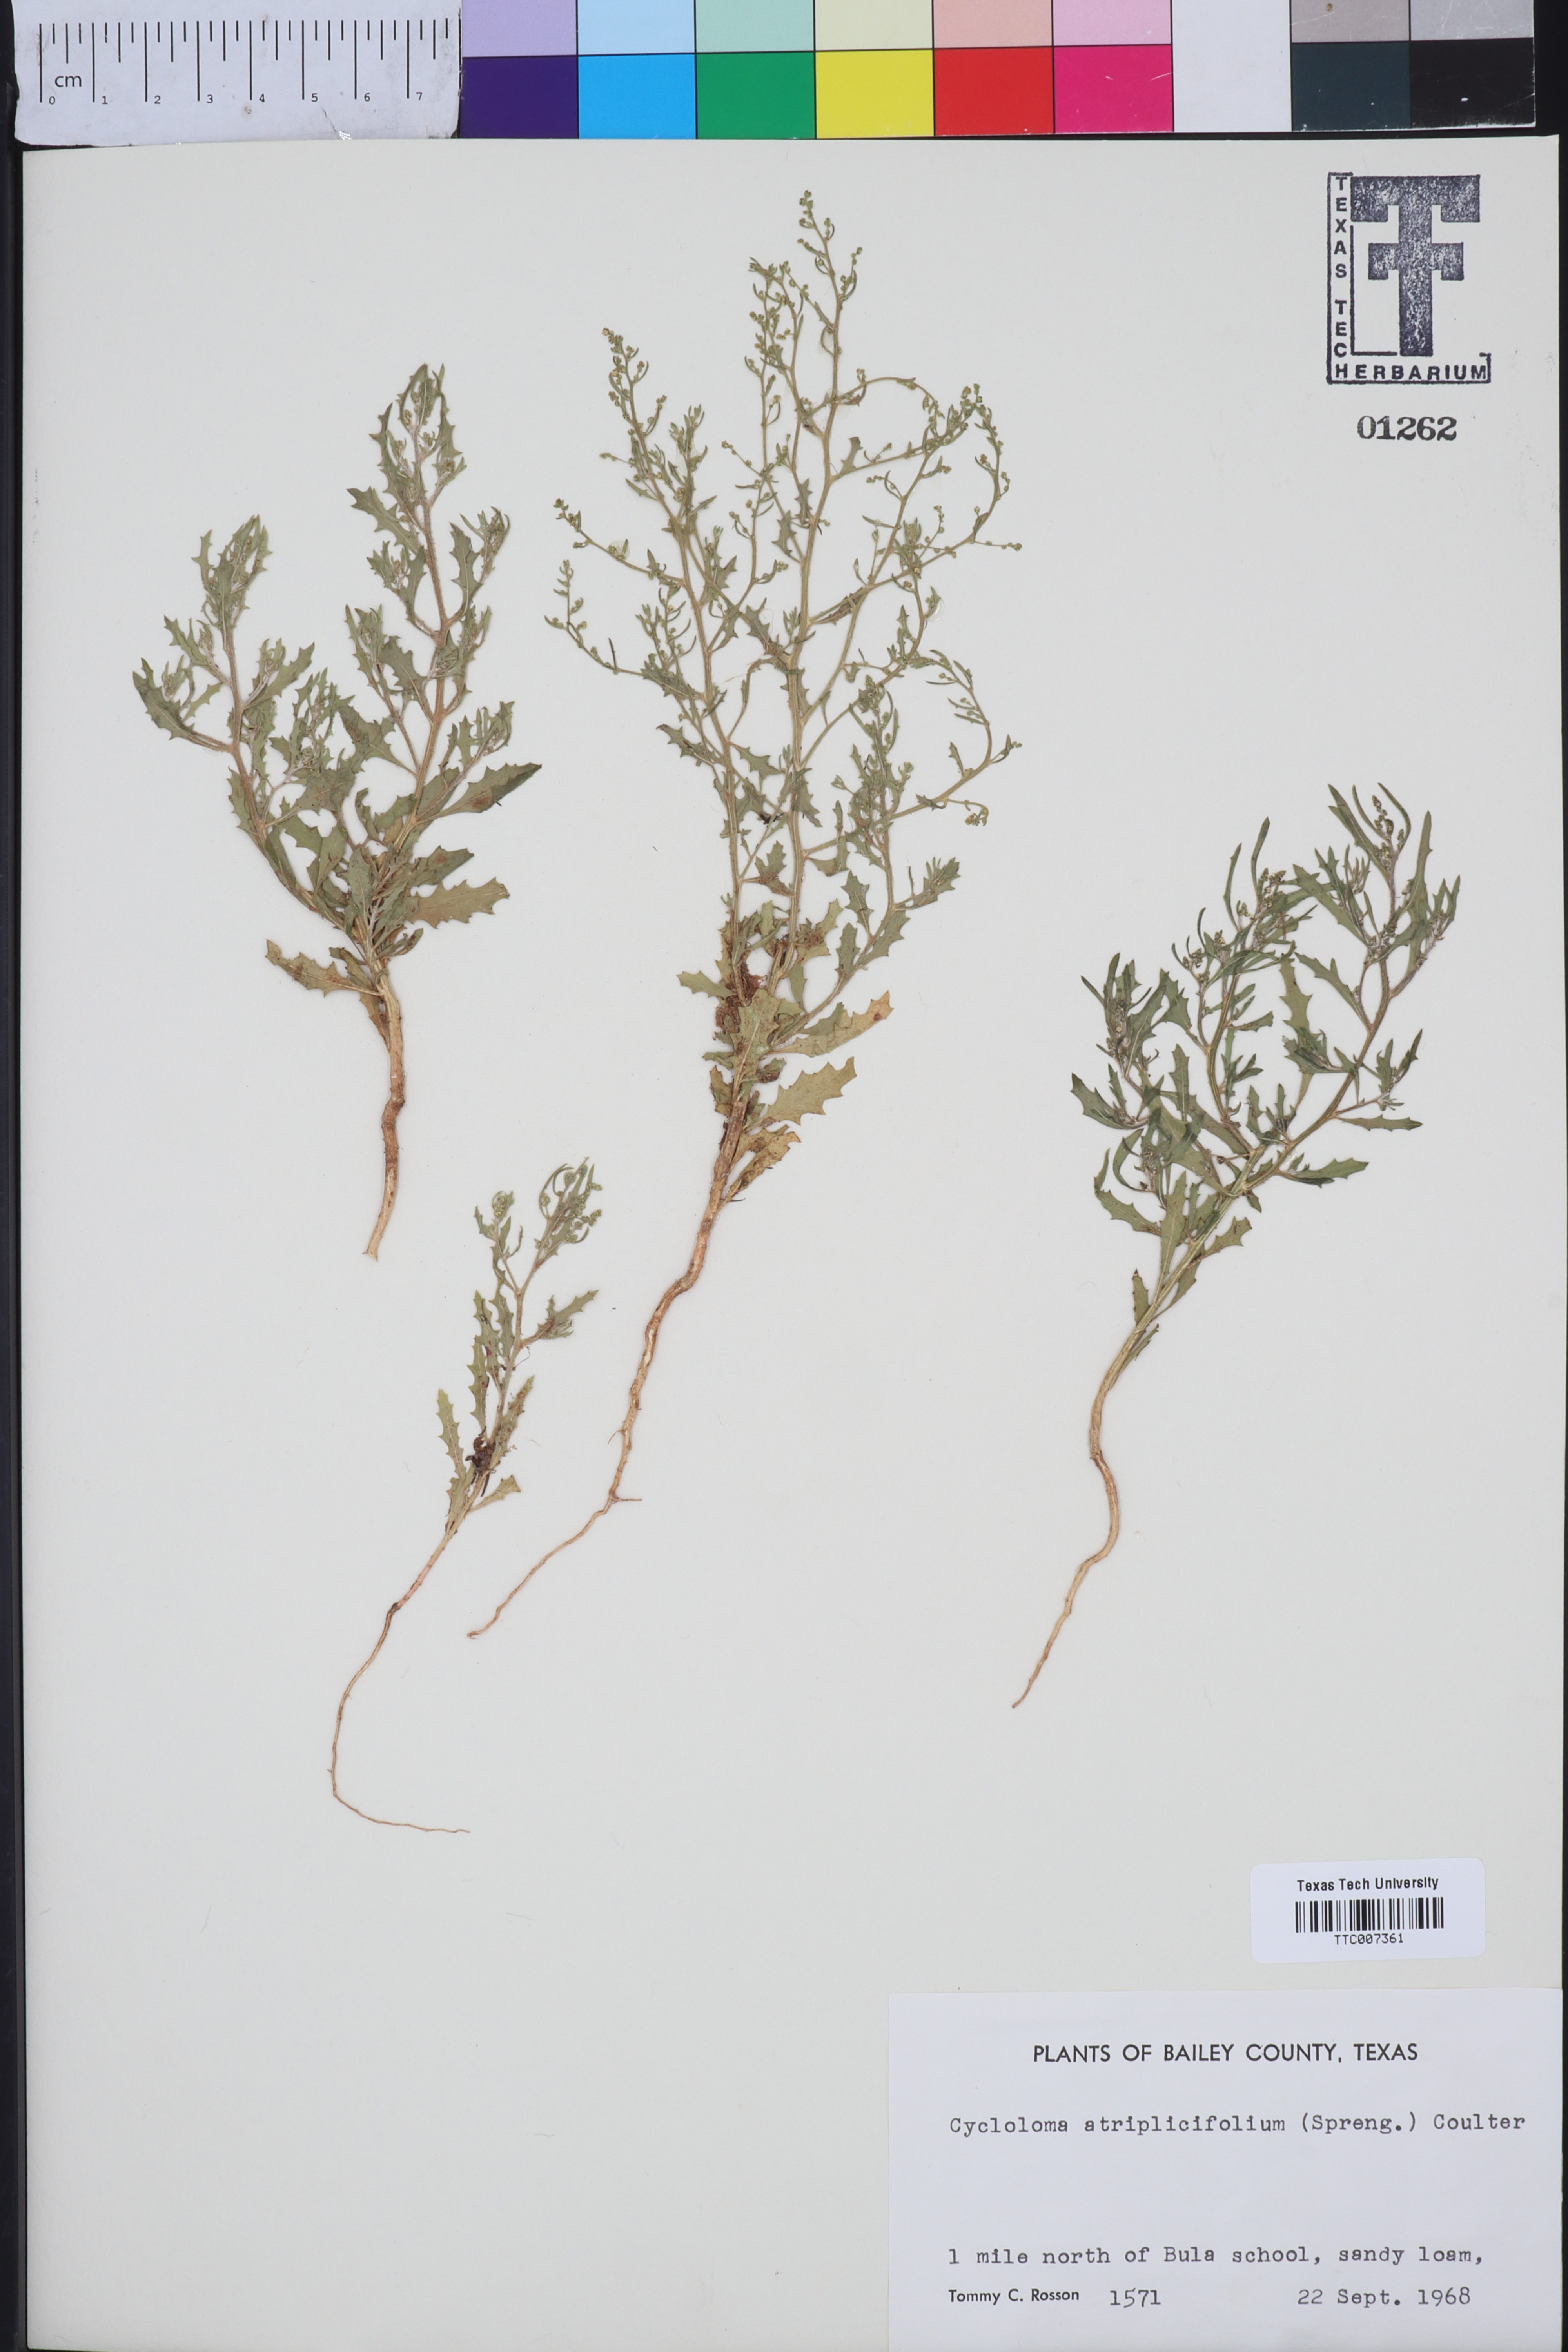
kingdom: Plantae
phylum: Tracheophyta
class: Magnoliopsida
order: Caryophyllales
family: Amaranthaceae
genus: Dysphania
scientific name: Dysphania atriplicifolia
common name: Plains tumbleweed
